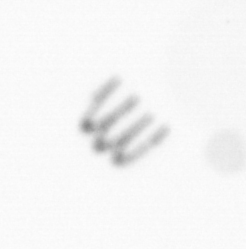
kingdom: Chromista
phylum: Ochrophyta
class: Bacillariophyceae
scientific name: Bacillariophyceae
